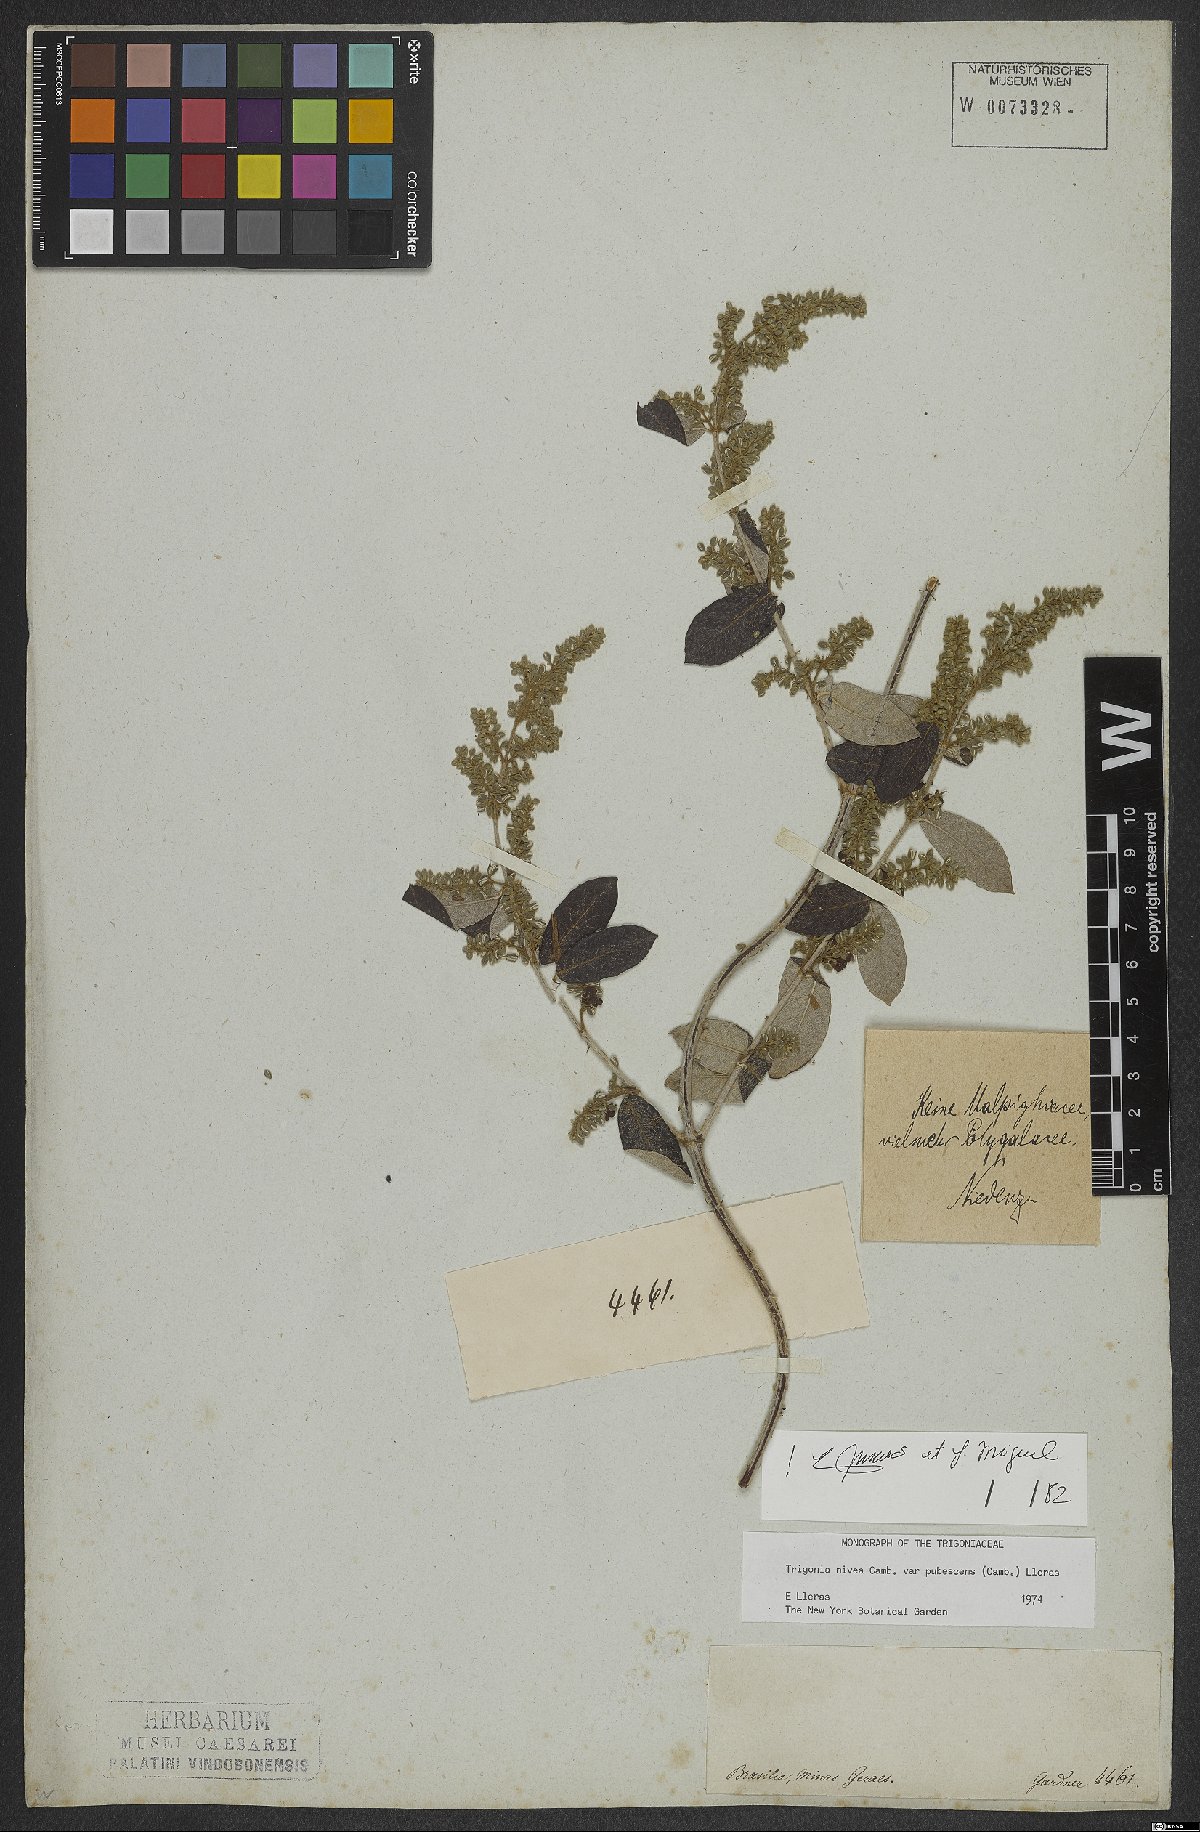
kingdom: Plantae
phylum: Tracheophyta
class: Magnoliopsida
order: Malpighiales
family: Trigoniaceae
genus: Trigonia
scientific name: Trigonia nivea
